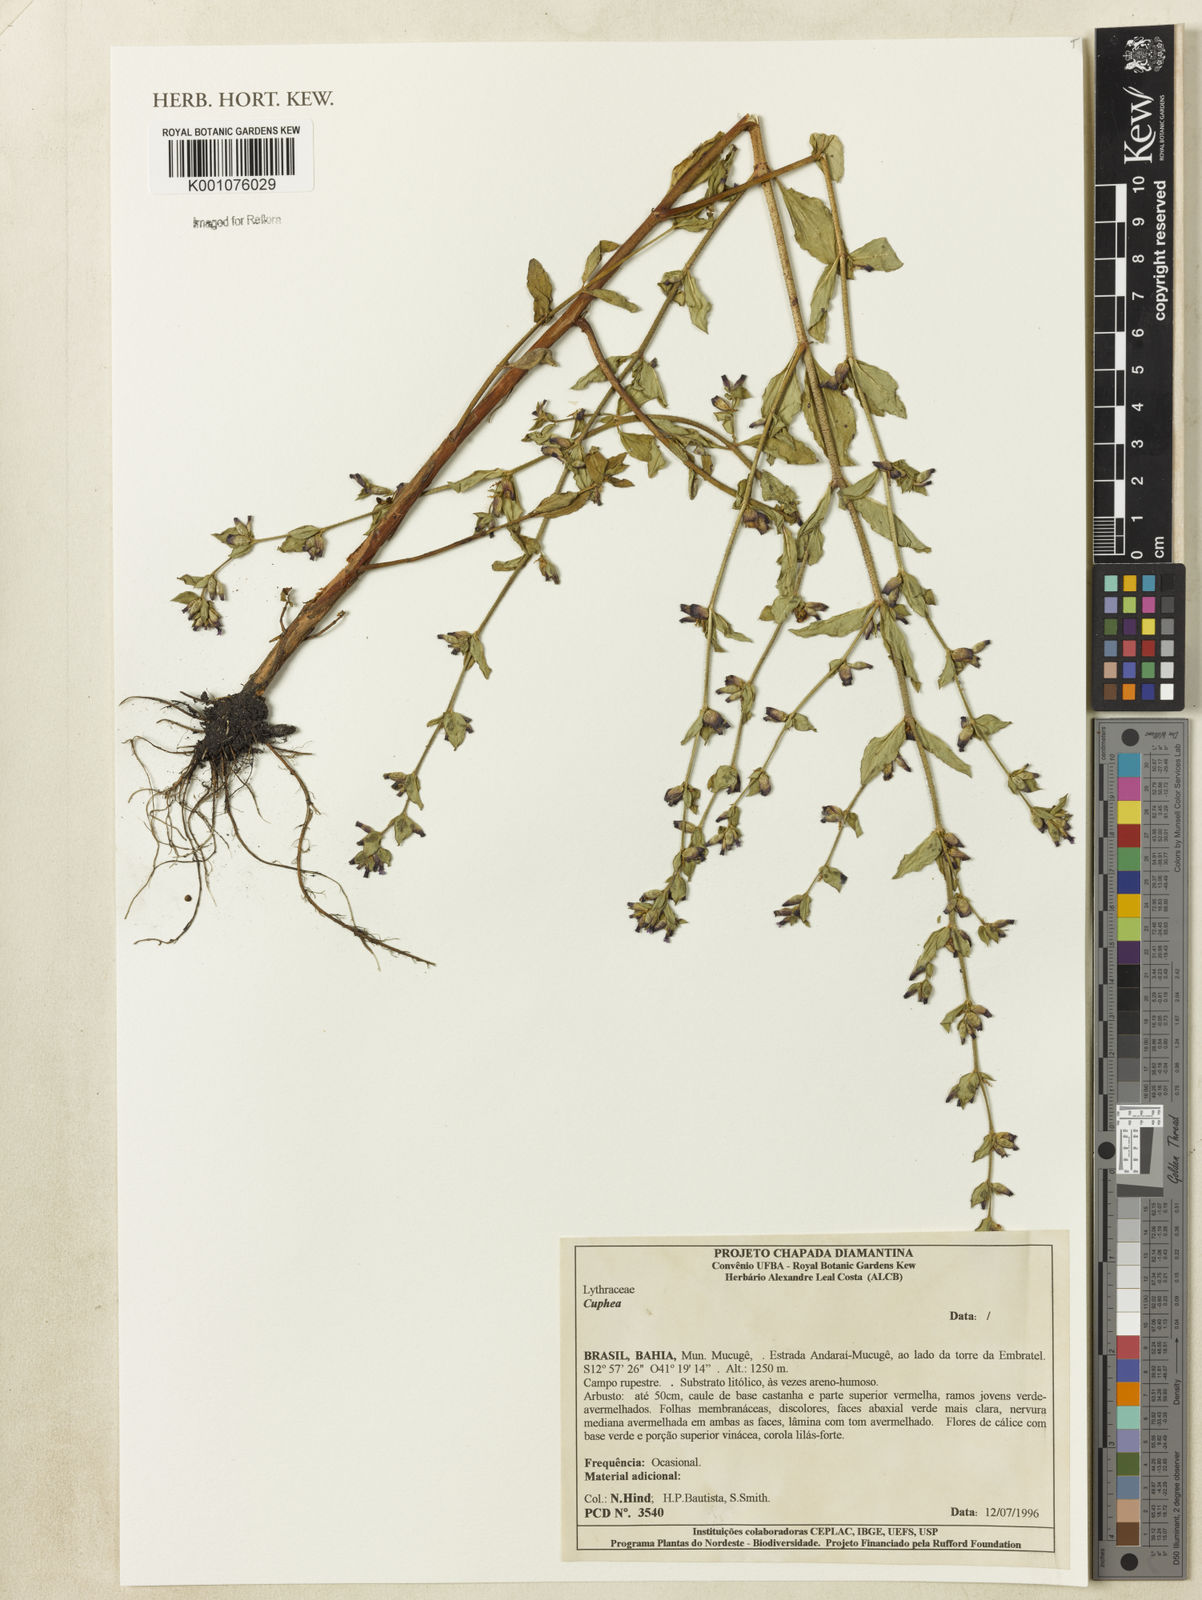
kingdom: Plantae
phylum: Tracheophyta
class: Magnoliopsida
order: Myrtales
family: Lythraceae
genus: Cuphea
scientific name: Cuphea
